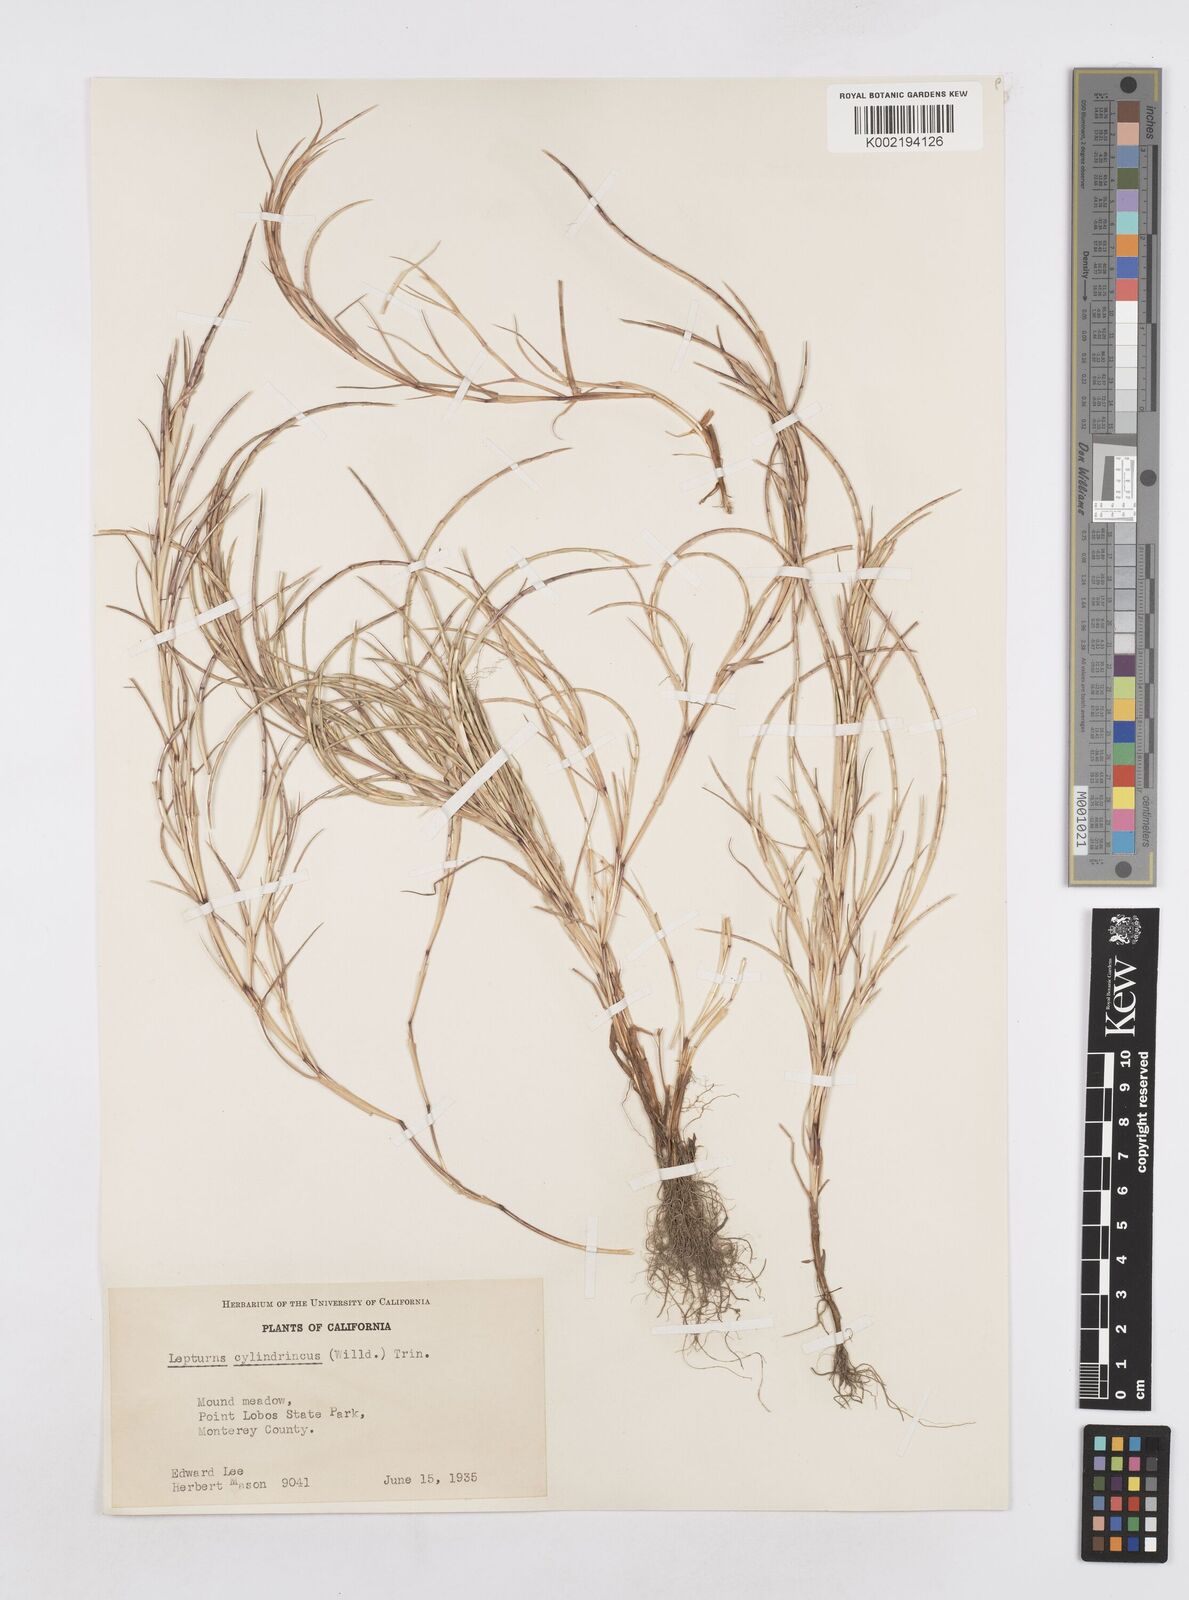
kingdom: Plantae
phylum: Tracheophyta
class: Liliopsida
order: Poales
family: Poaceae
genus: Parapholis
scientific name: Parapholis incurva
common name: Curved sicklegrass
